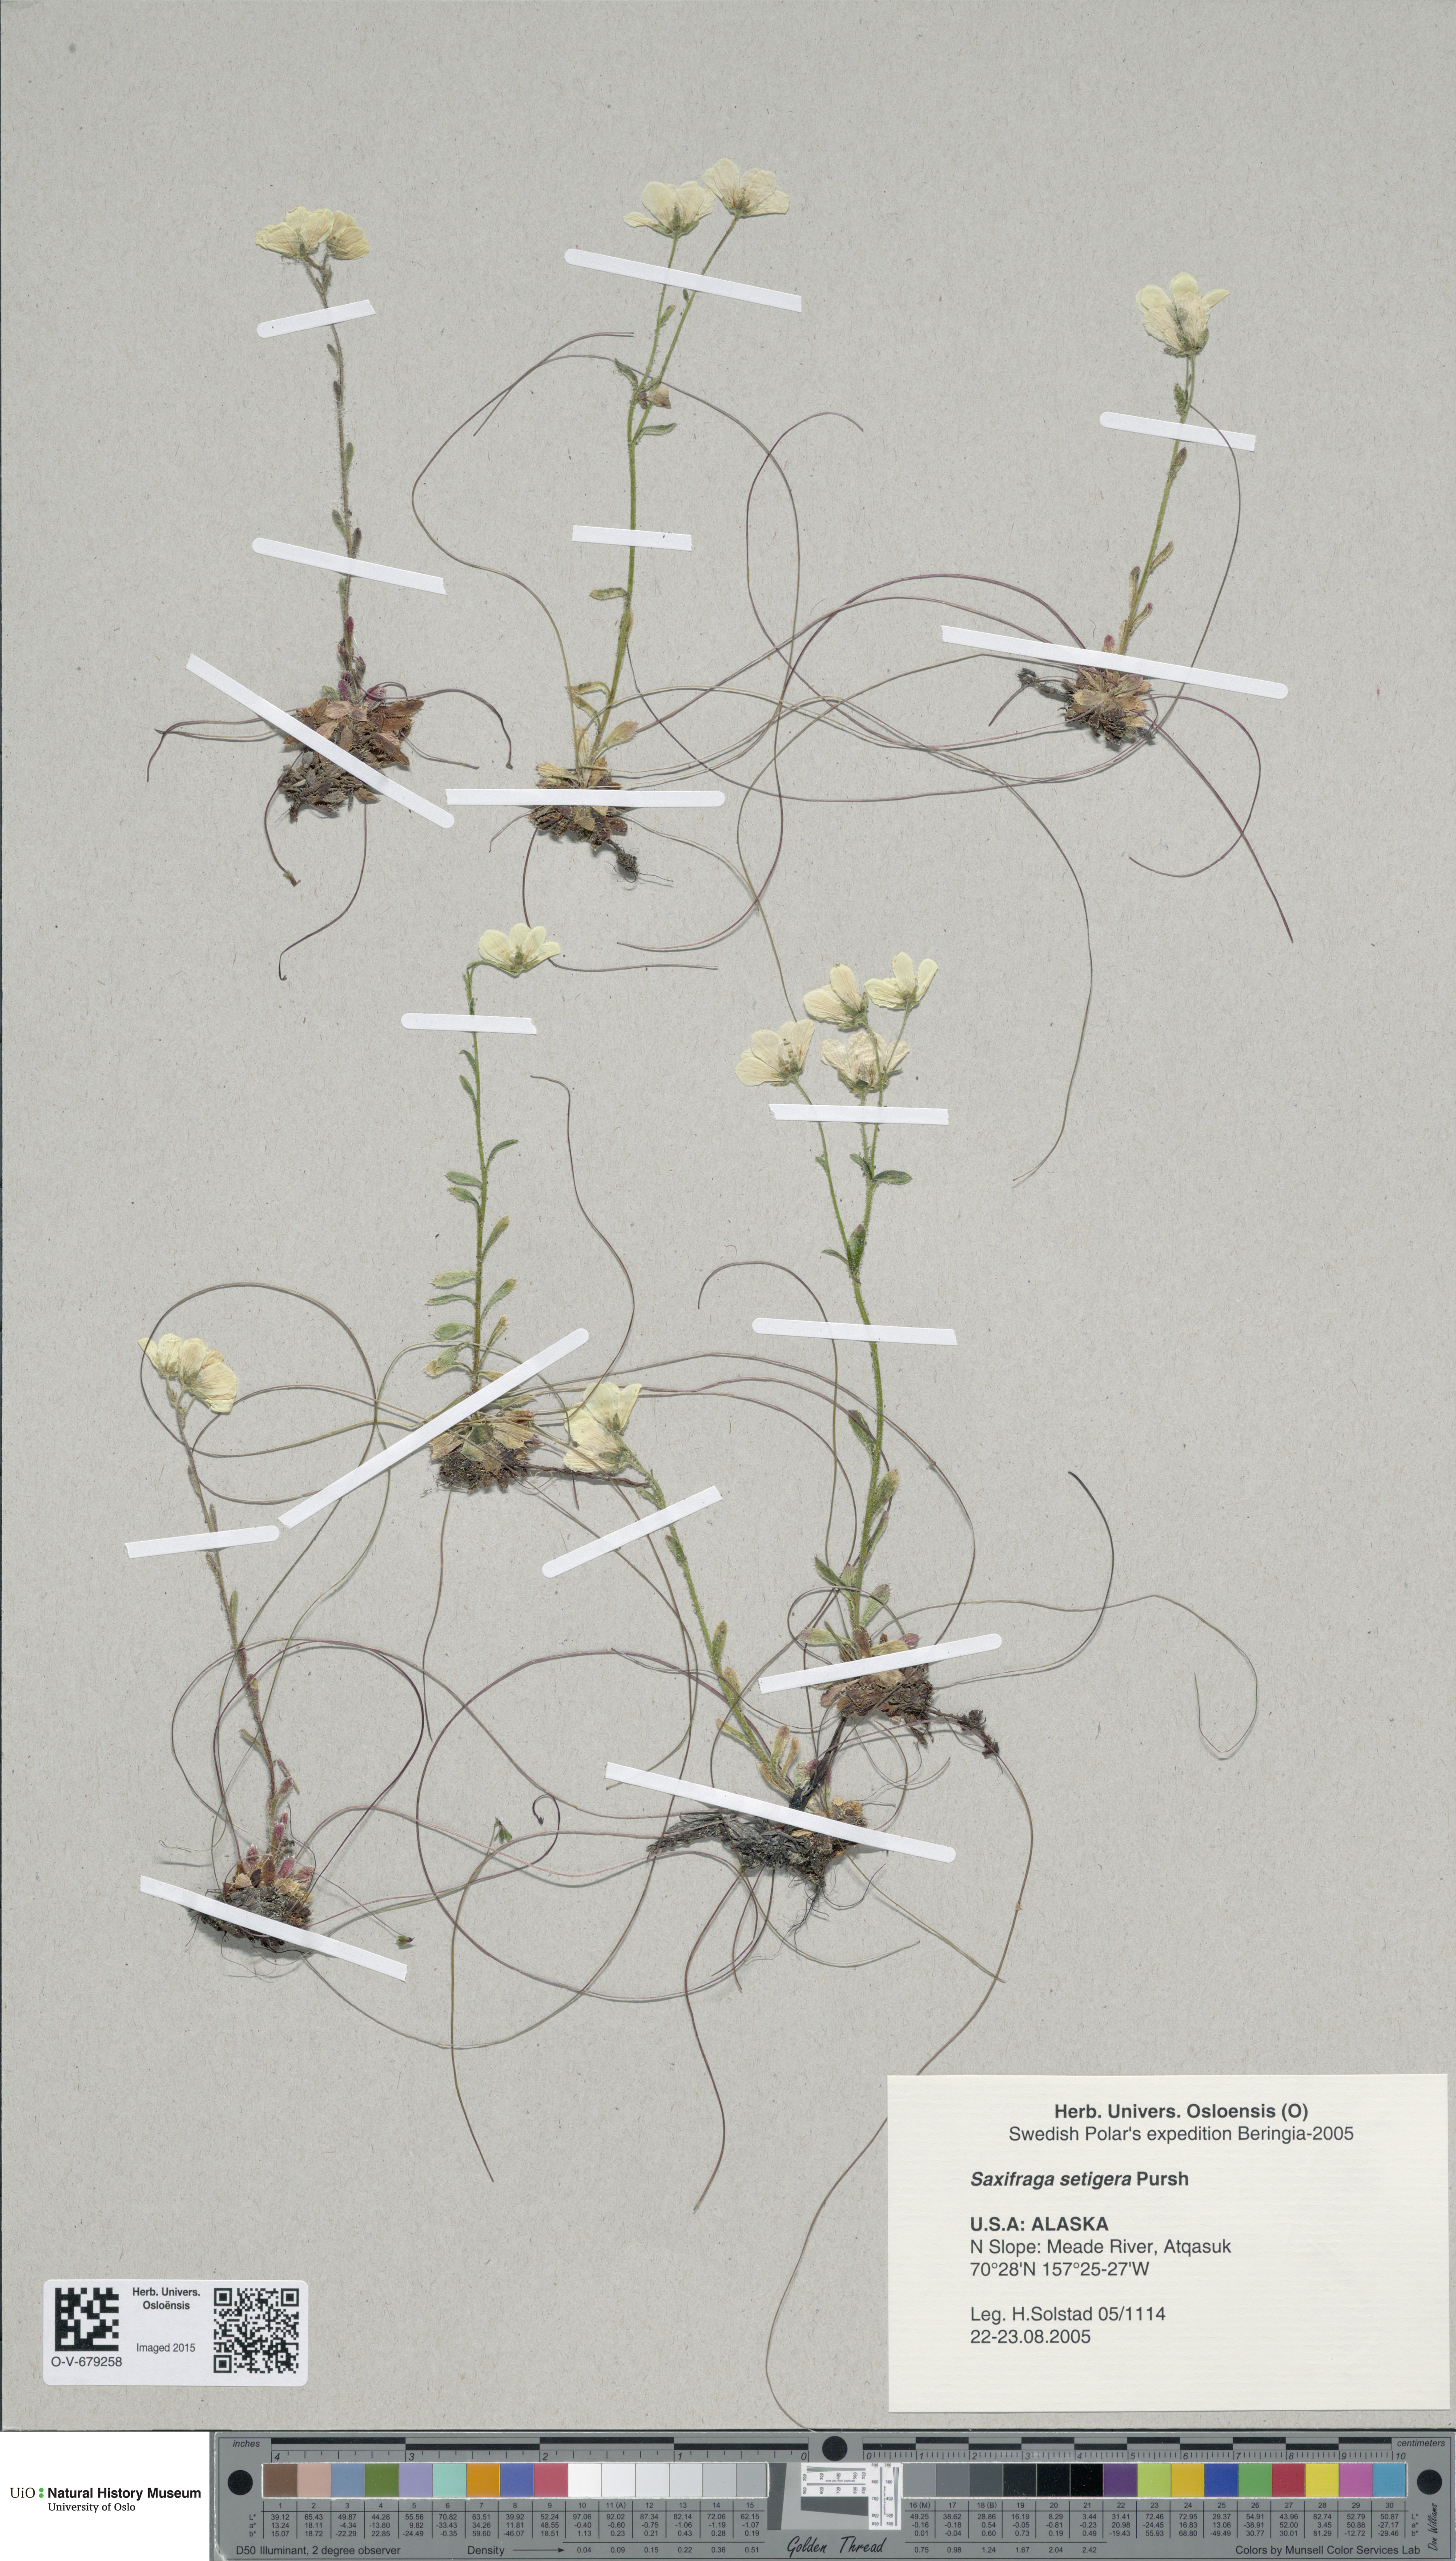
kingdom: Plantae
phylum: Tracheophyta
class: Magnoliopsida
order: Saxifragales
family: Saxifragaceae
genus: Saxifraga
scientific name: Saxifraga flagellaris
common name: Spider saxifrage
